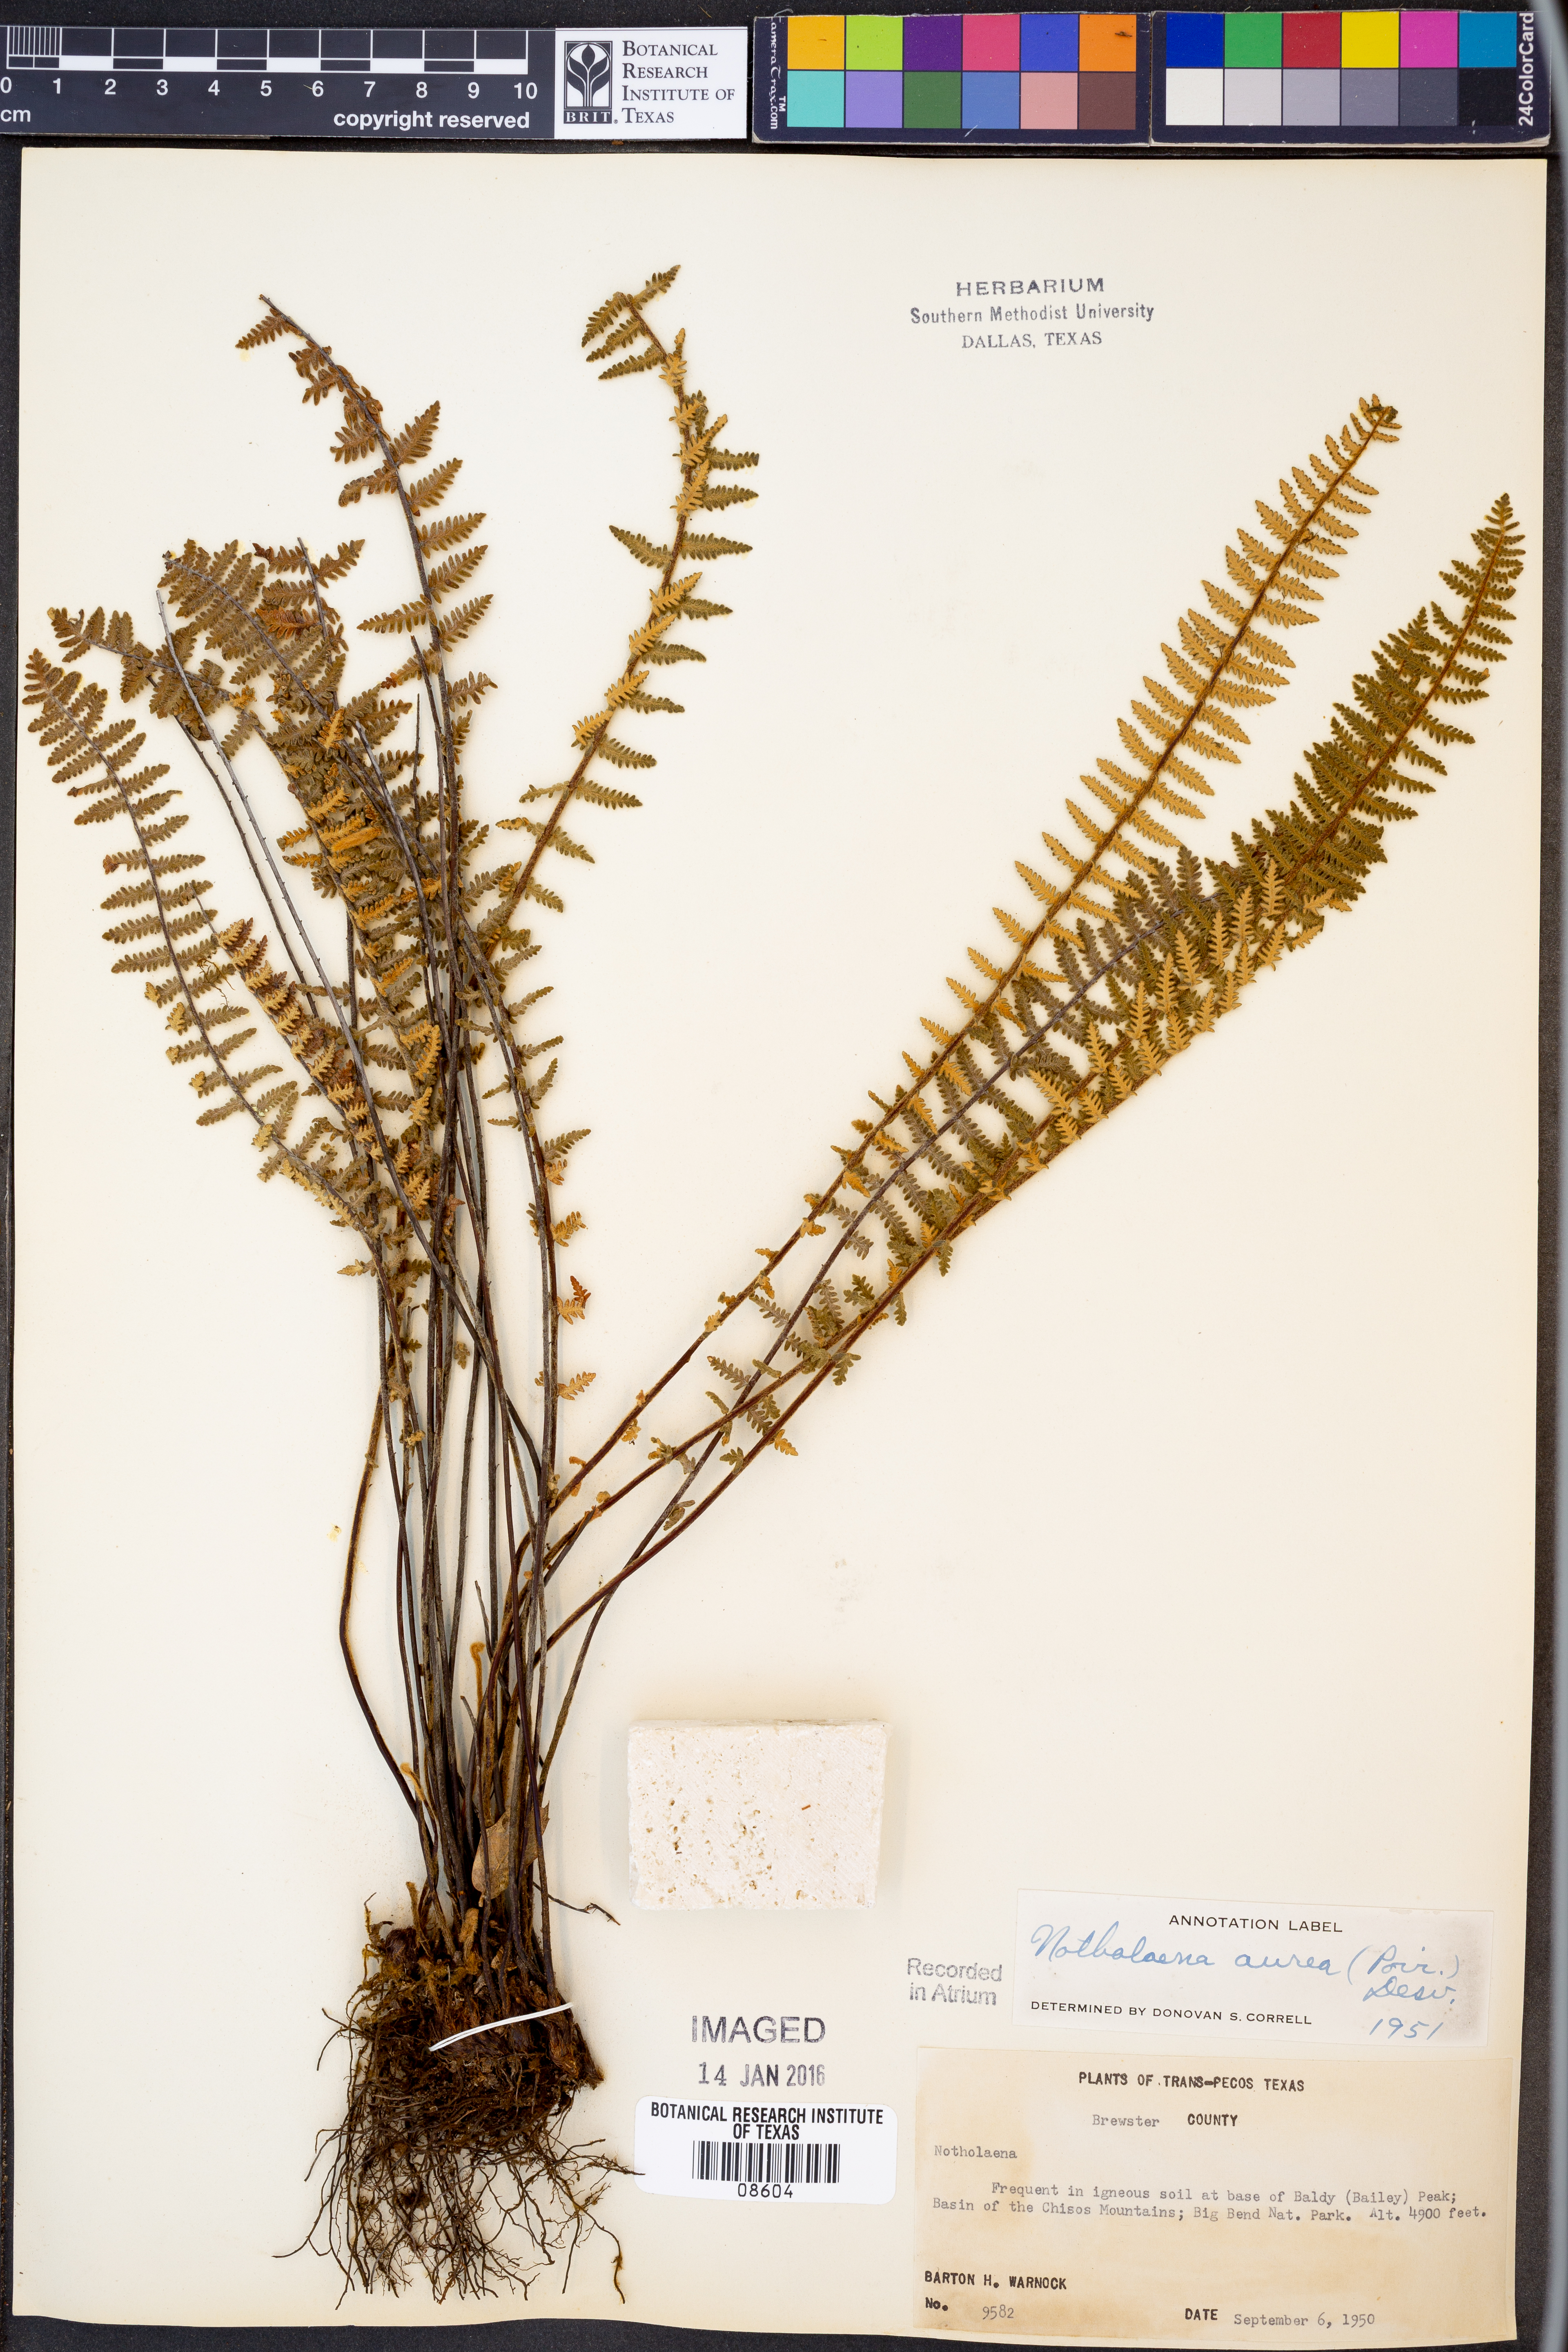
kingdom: Plantae
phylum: Tracheophyta
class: Polypodiopsida
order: Polypodiales
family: Pteridaceae
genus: Myriopteris
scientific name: Myriopteris aurea
